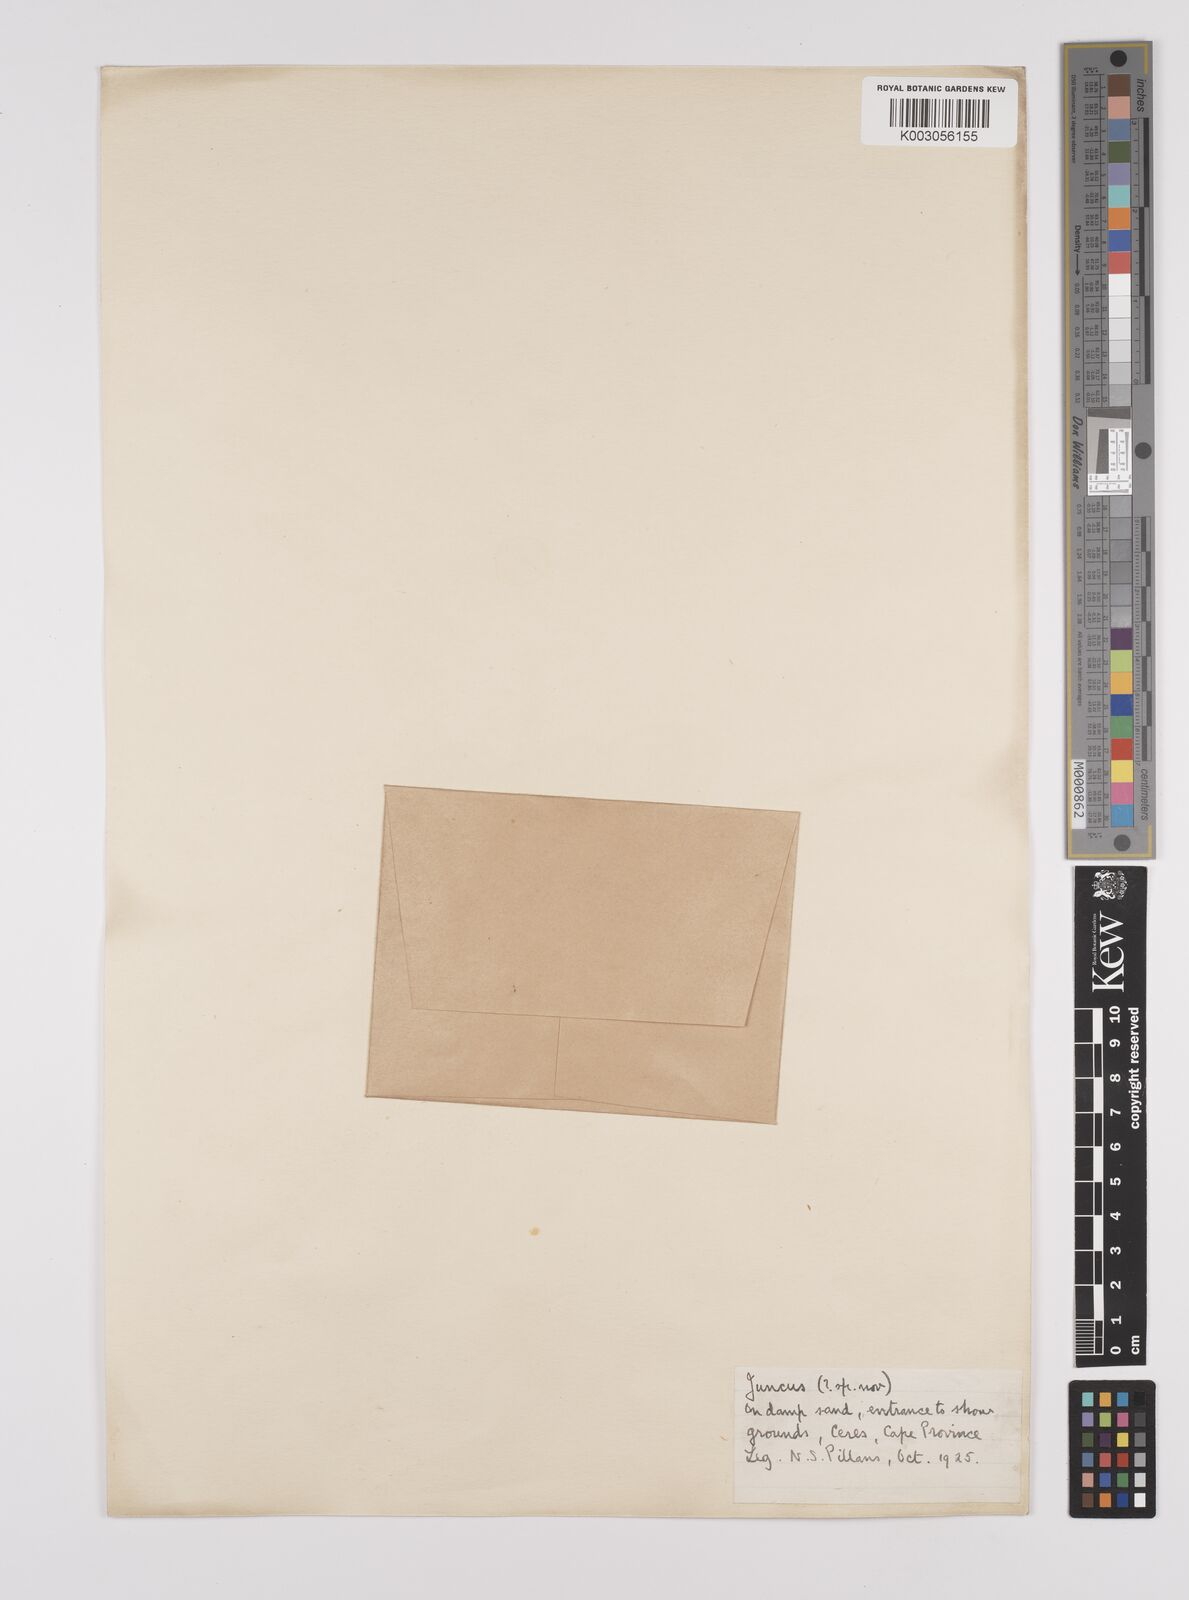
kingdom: Plantae
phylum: Tracheophyta
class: Liliopsida
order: Poales
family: Juncaceae
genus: Juncus
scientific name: Juncus
